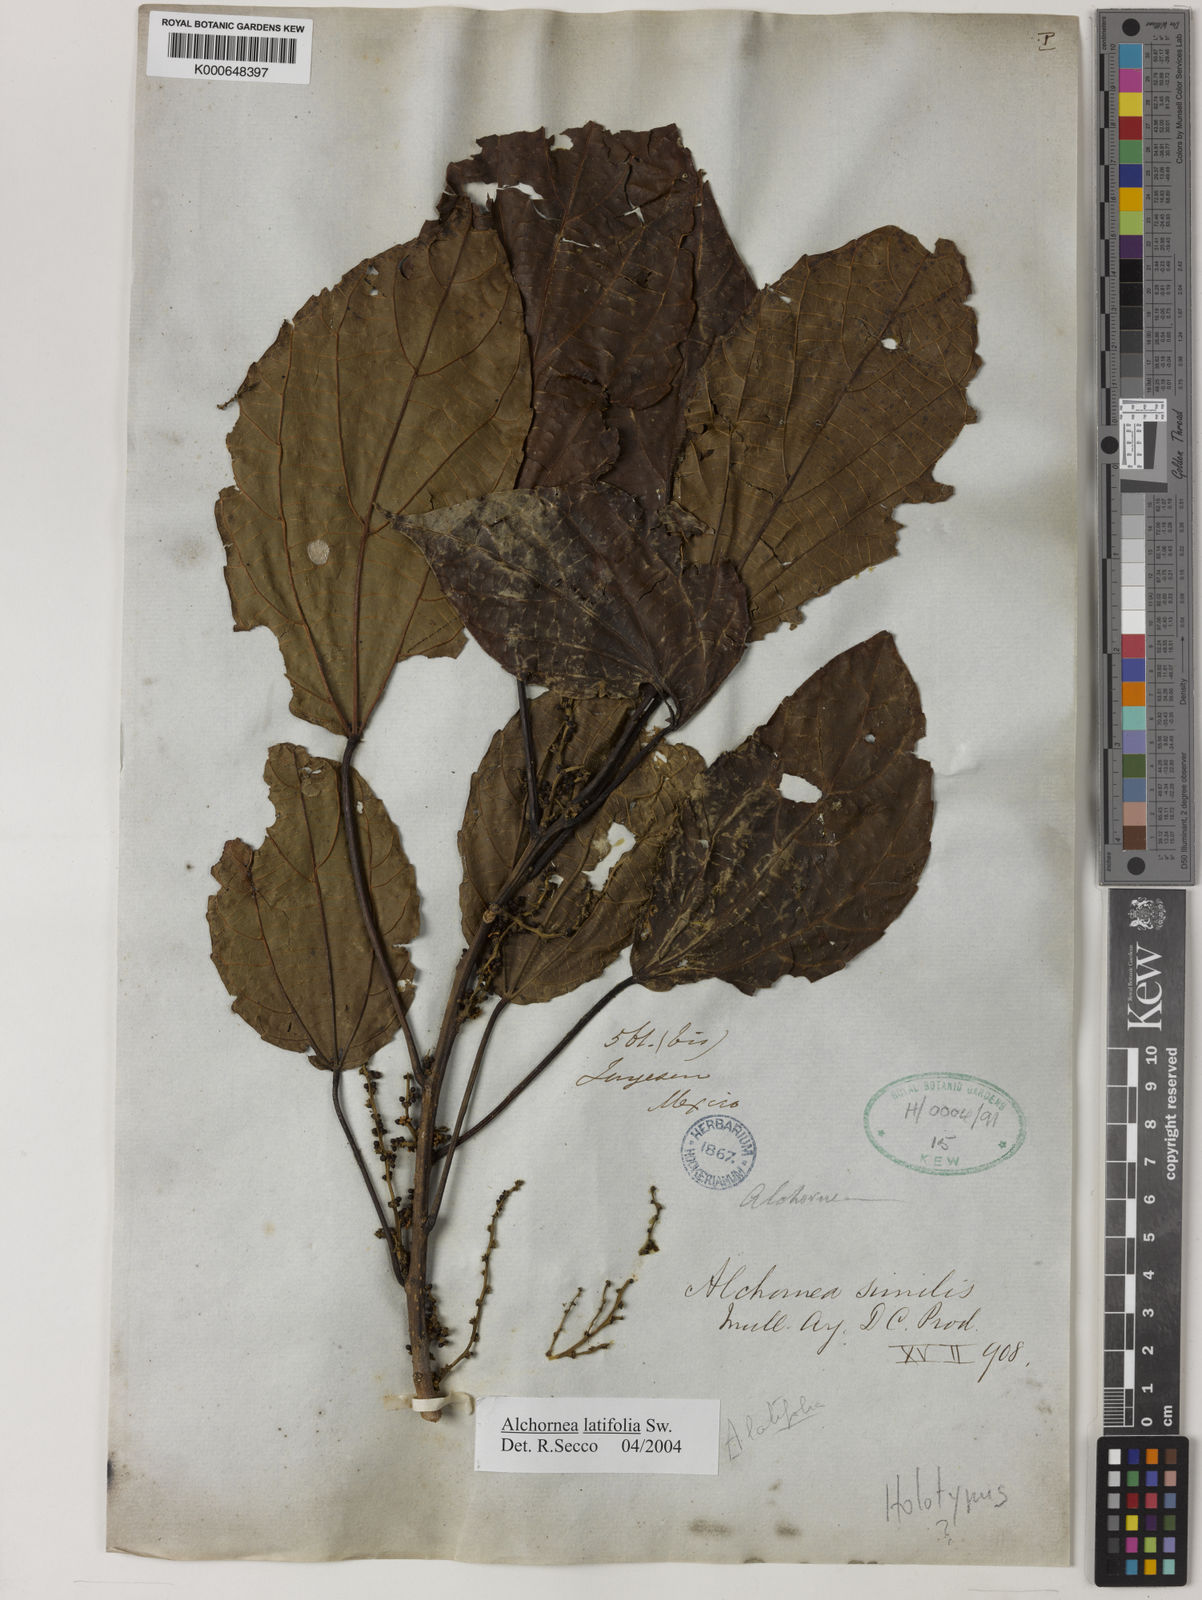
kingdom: Plantae
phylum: Tracheophyta
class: Magnoliopsida
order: Malpighiales
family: Euphorbiaceae
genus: Alchornea
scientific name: Alchornea latifolia
